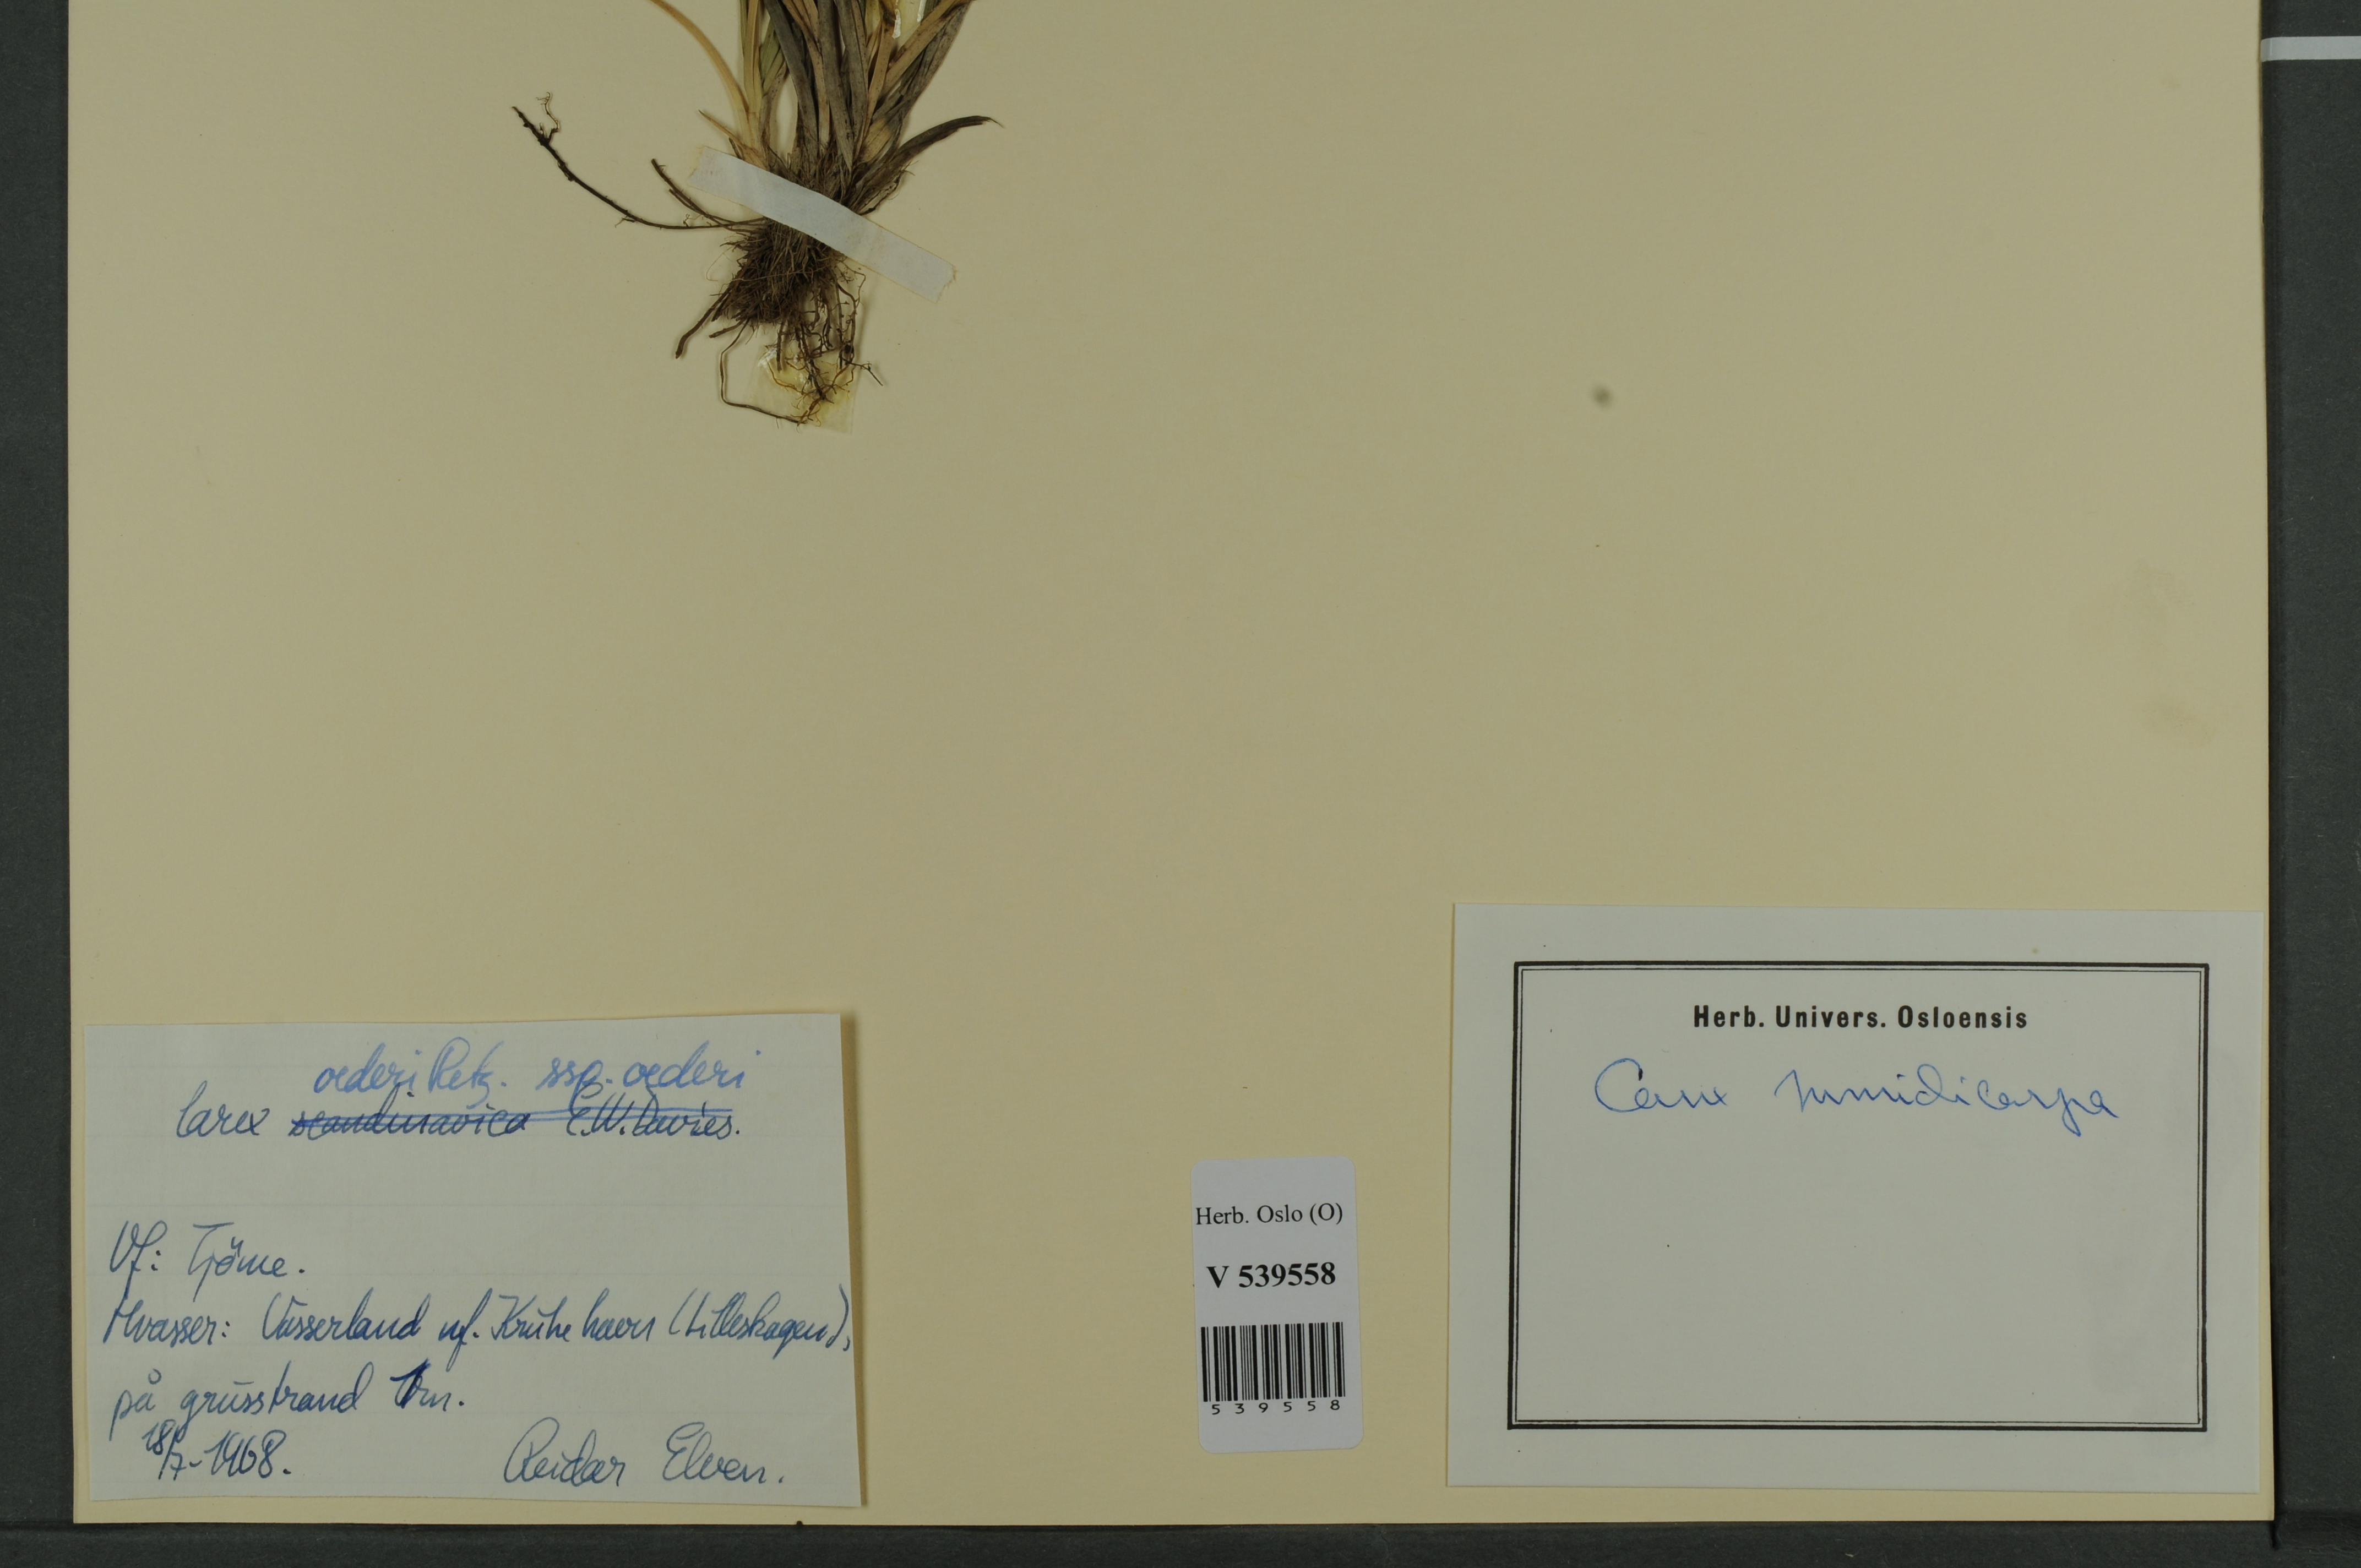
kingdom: Plantae
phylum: Tracheophyta
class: Liliopsida
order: Poales
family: Cyperaceae
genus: Carex
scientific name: Carex demissa
